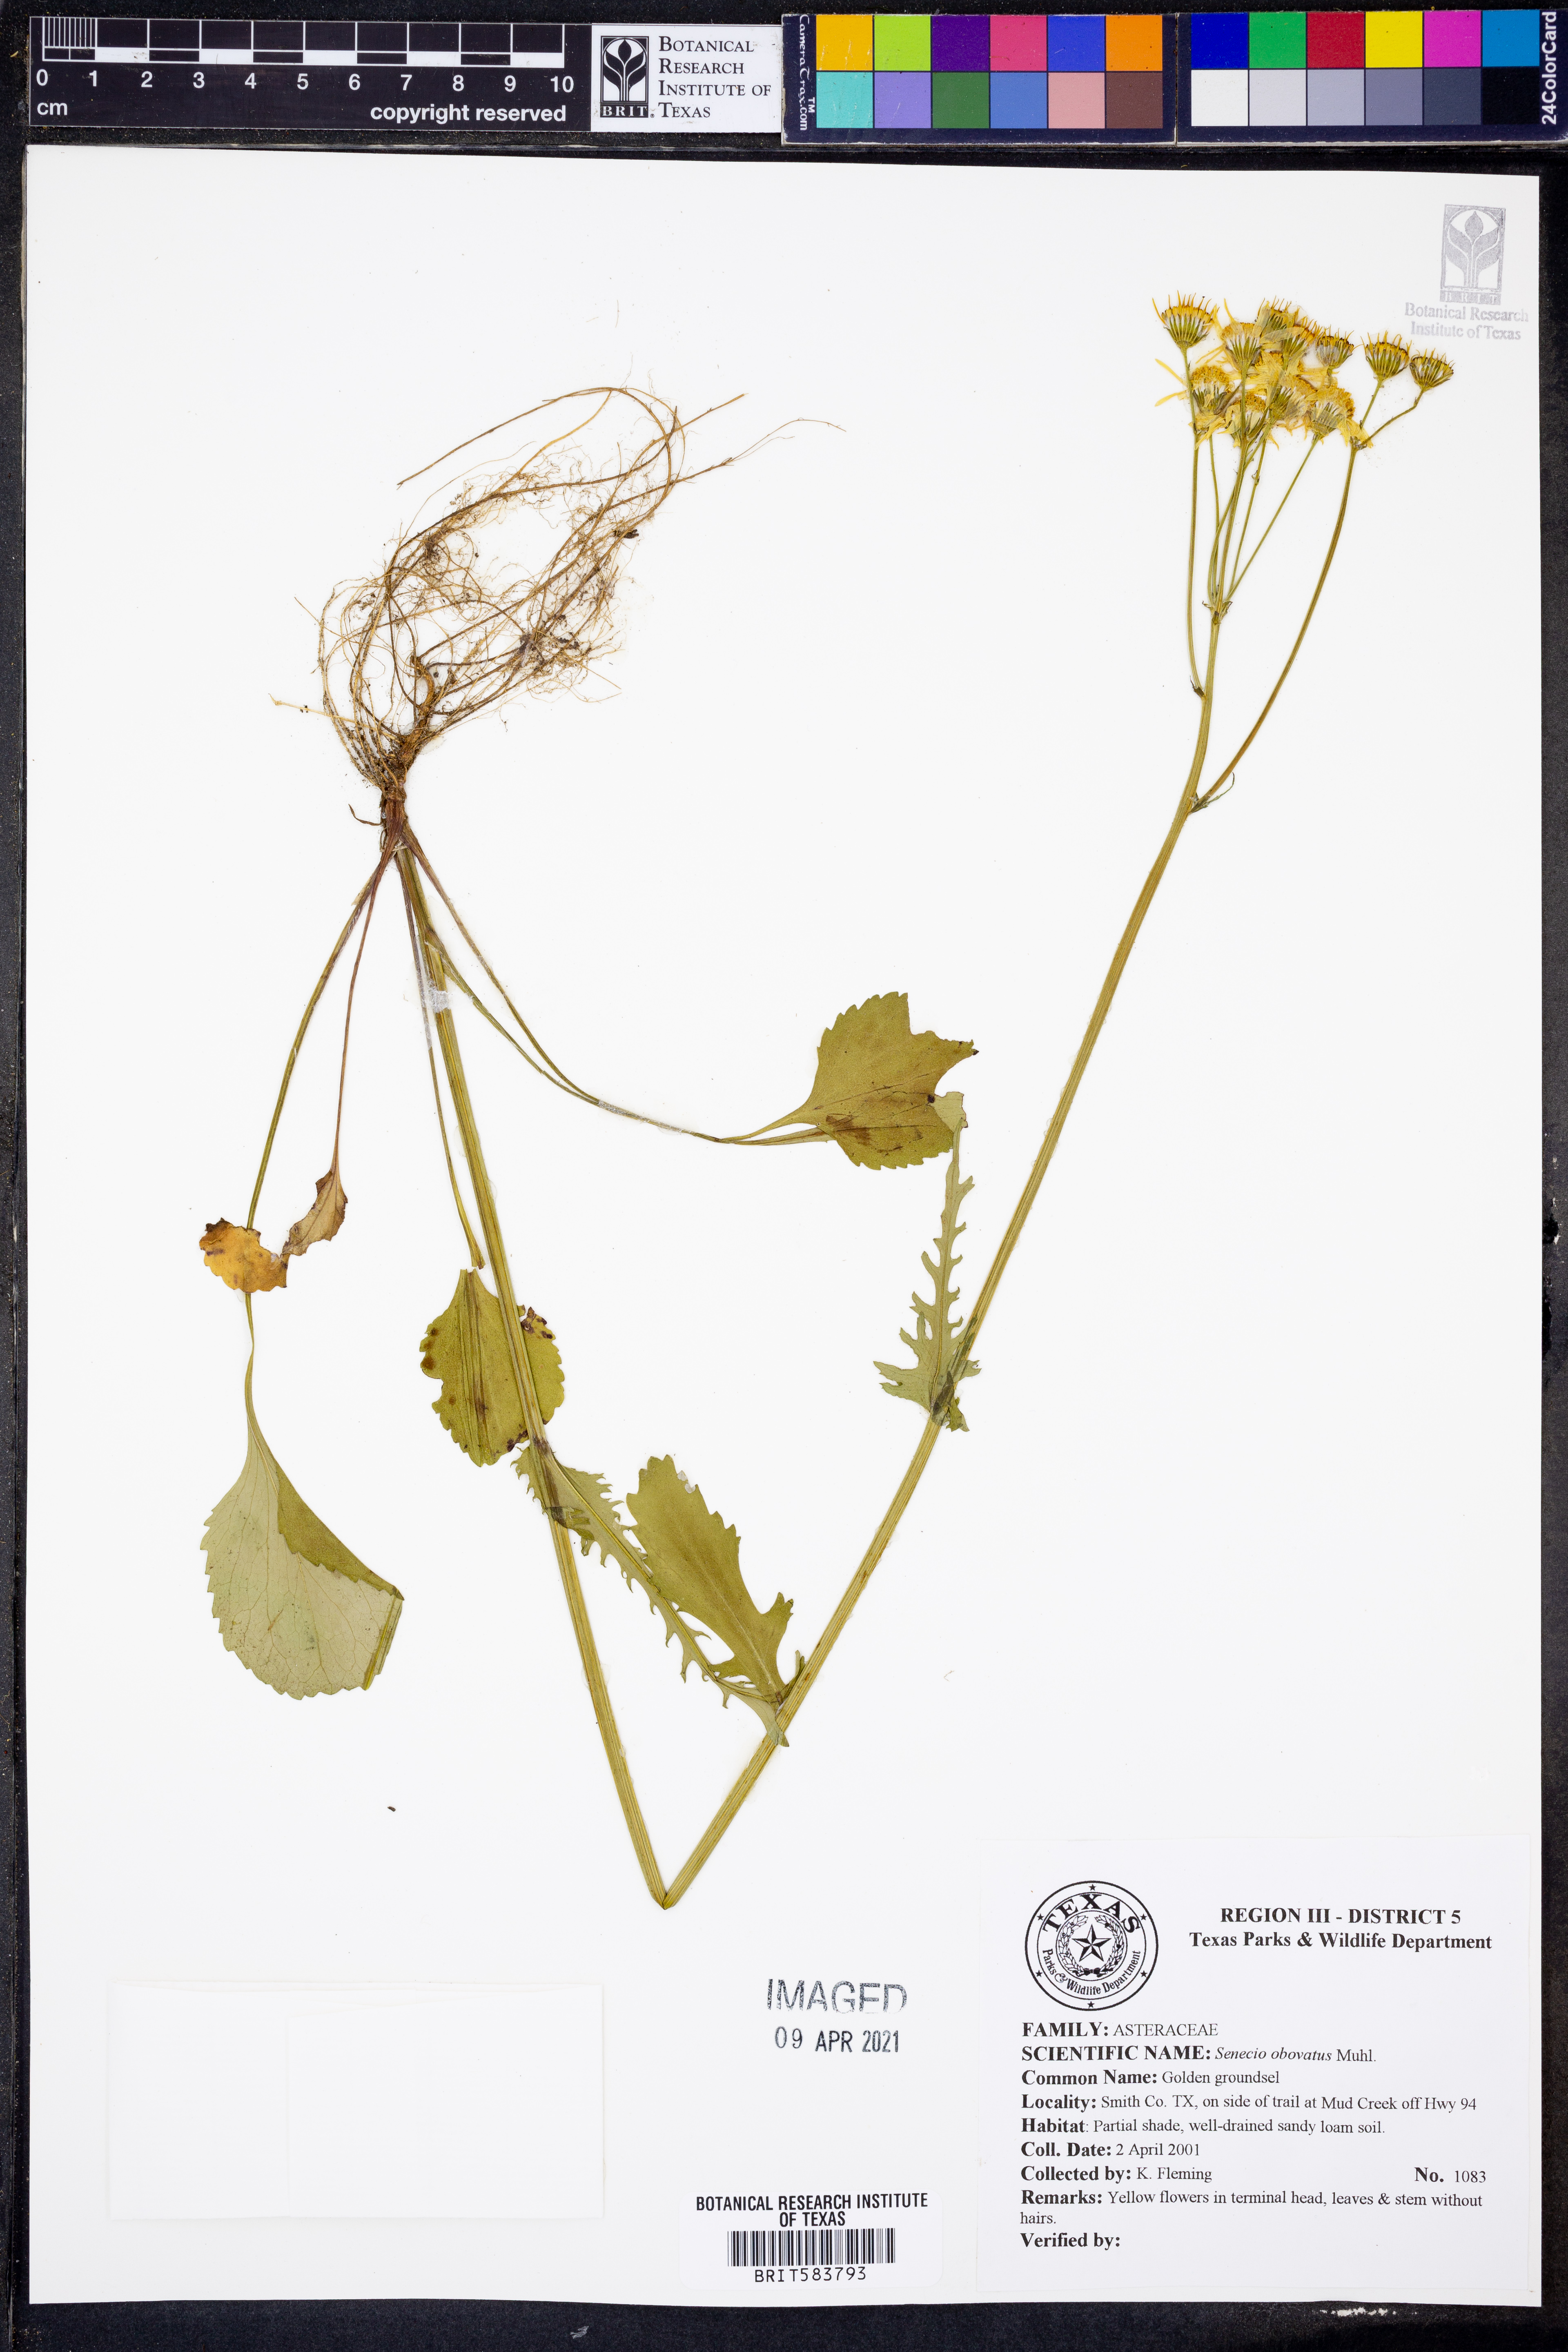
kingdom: Plantae
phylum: Tracheophyta
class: Magnoliopsida
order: Asterales
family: Asteraceae
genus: Senecio
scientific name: Senecio provincialis
